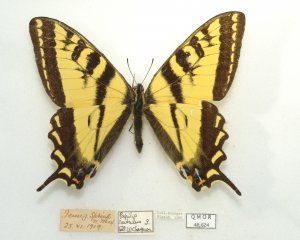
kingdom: Animalia
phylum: Arthropoda
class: Insecta
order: Lepidoptera
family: Papilionidae
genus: Pterourus
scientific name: Pterourus rutulus
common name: Western Tiger Swallowtail
